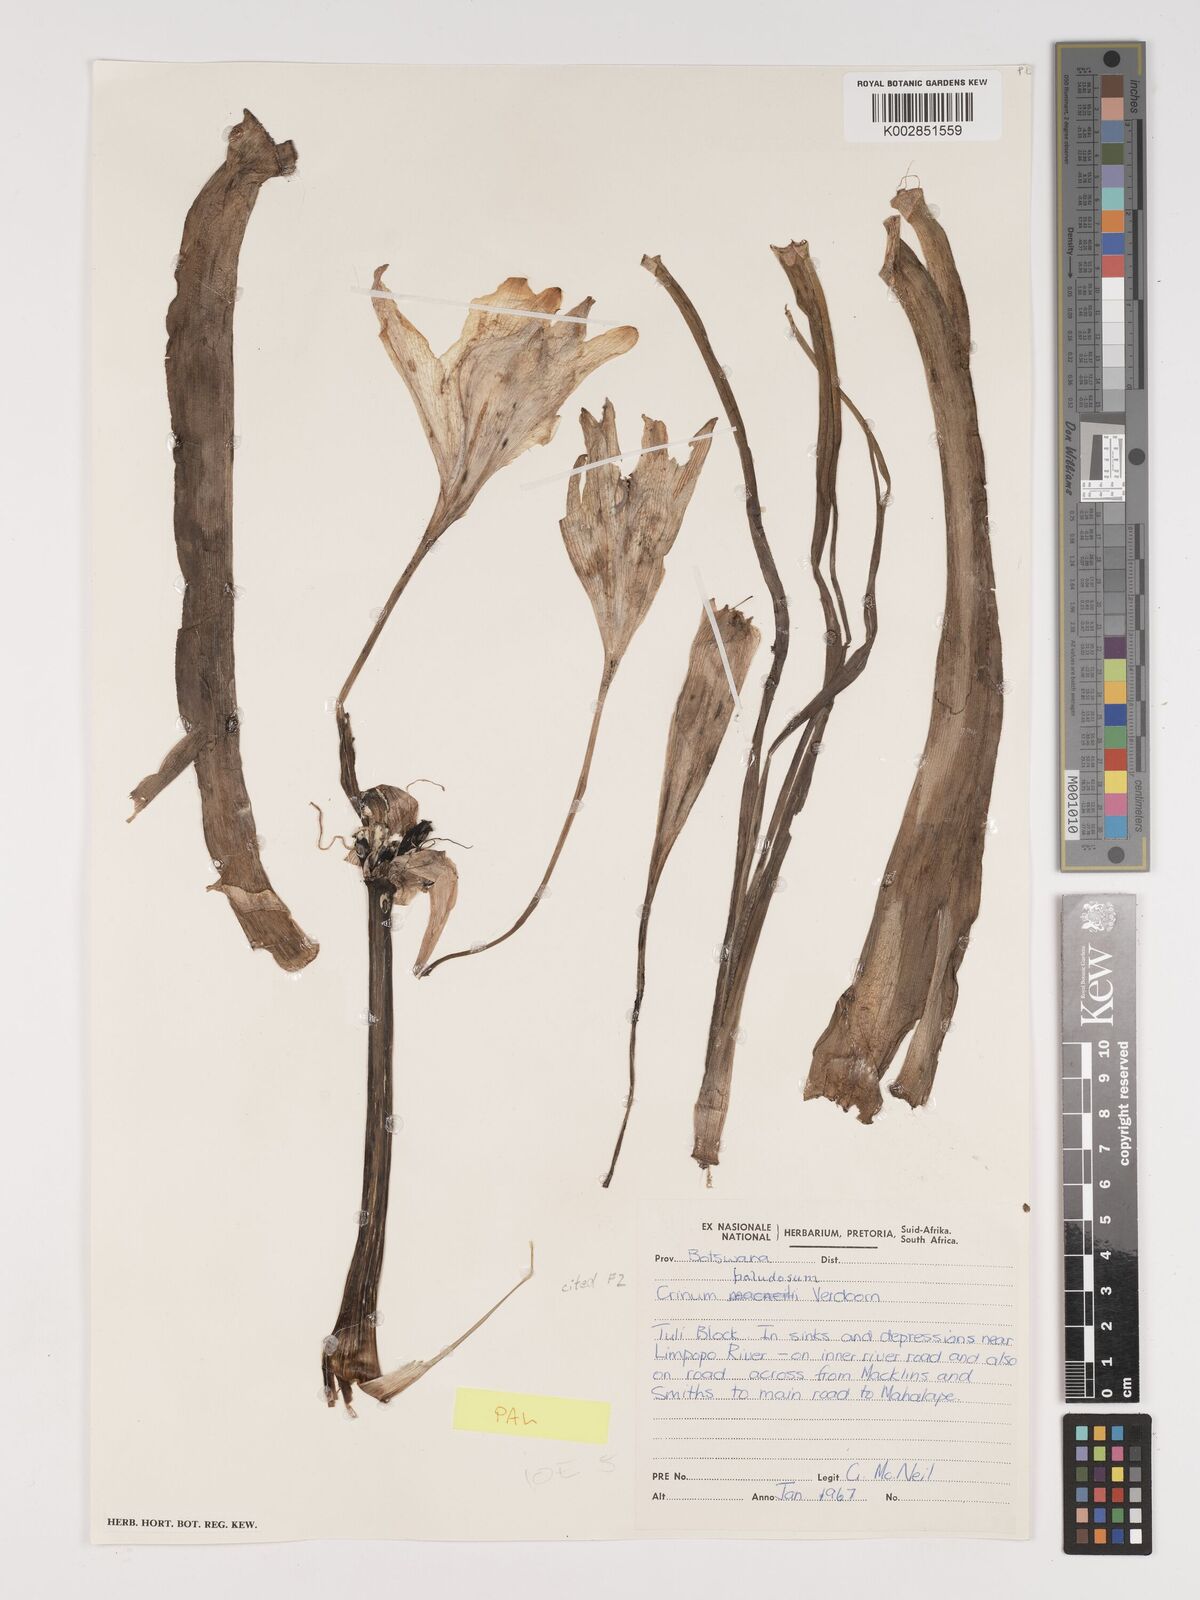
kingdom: Plantae
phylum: Tracheophyta
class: Liliopsida
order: Asparagales
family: Amaryllidaceae
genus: Crinum
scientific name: Crinum paludosum
